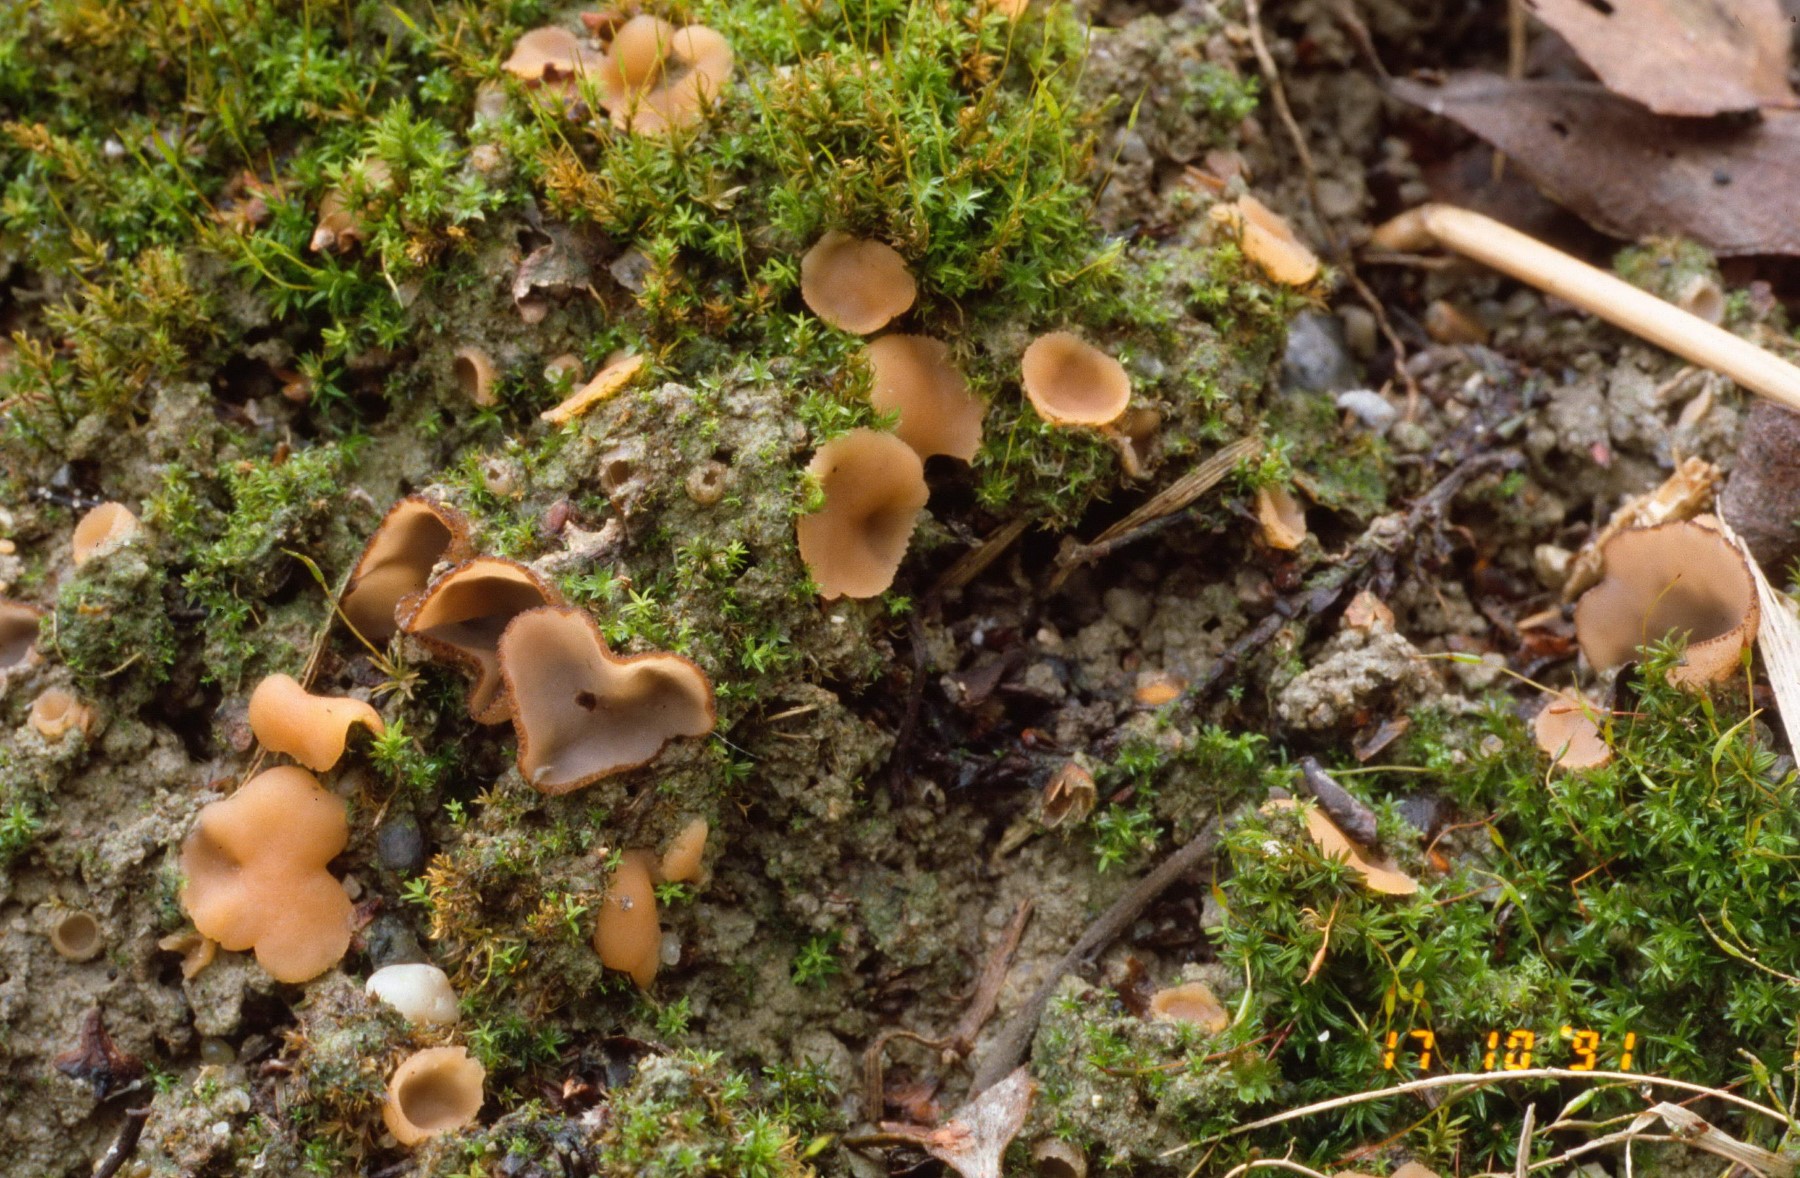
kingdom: Fungi
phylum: Ascomycota
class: Pezizomycetes
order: Pezizales
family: Pyronemataceae
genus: Sepultariella
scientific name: Sepultariella patavina
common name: smudsig børstebæger
